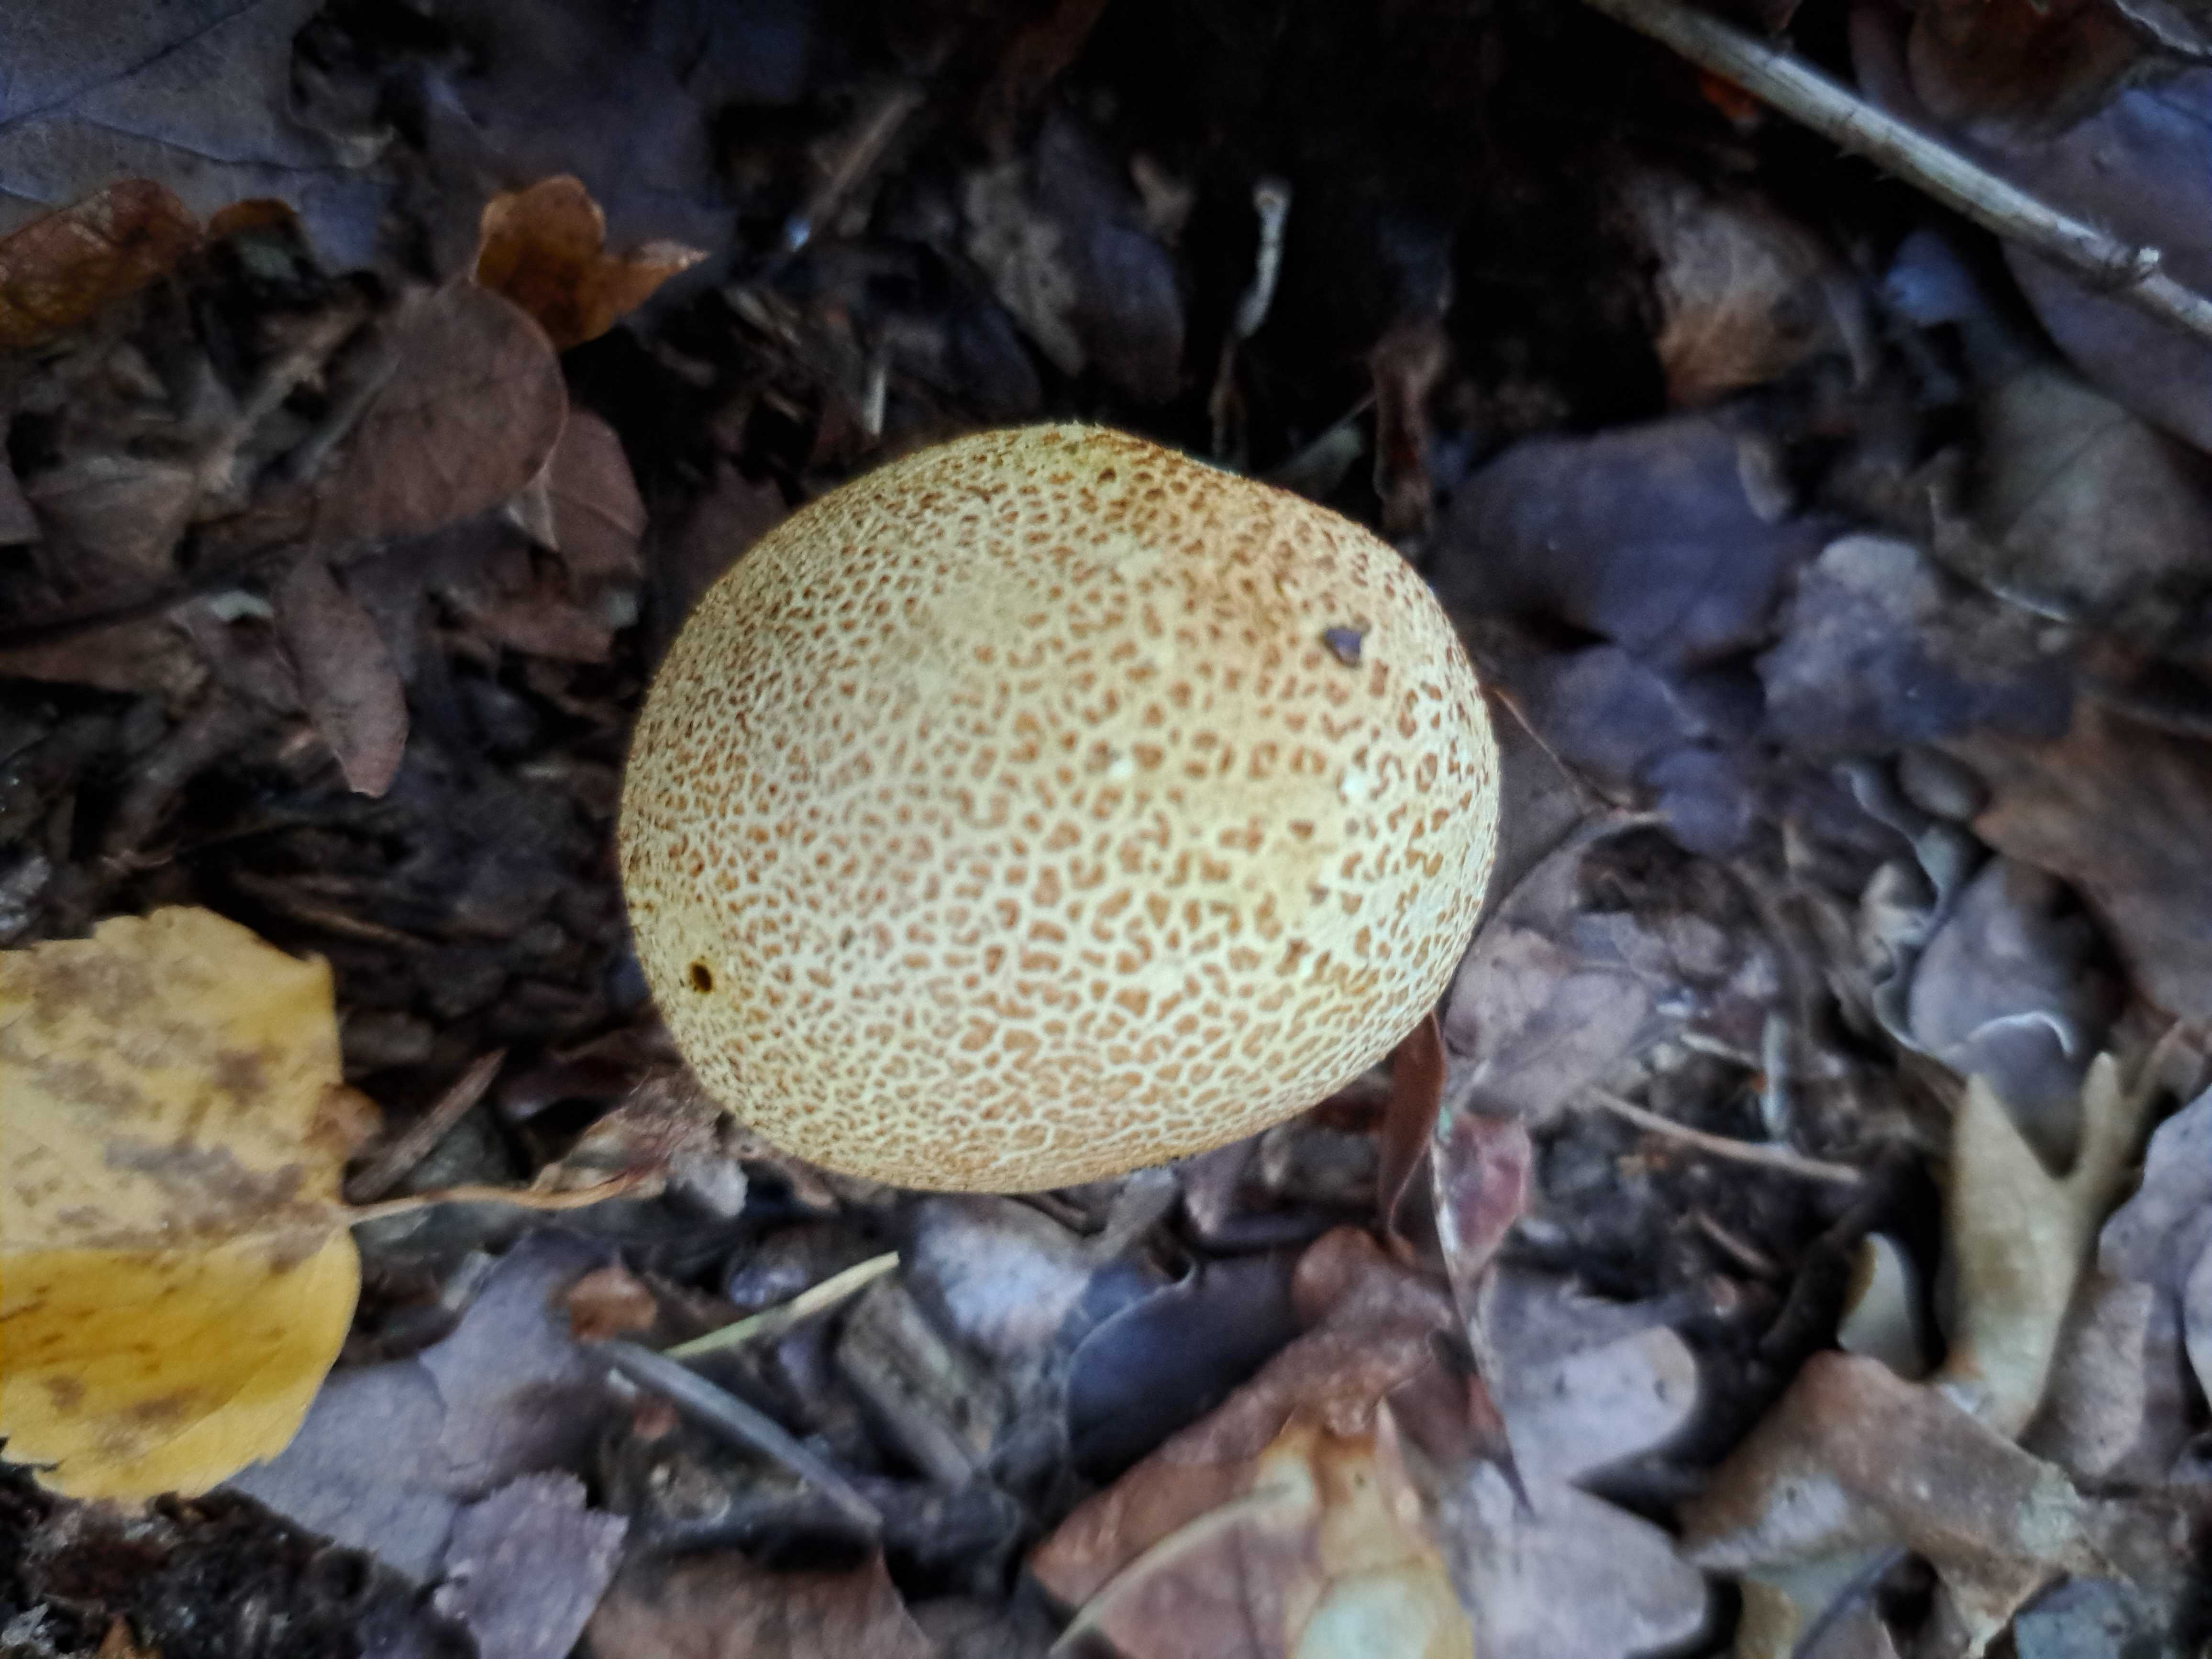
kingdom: Fungi
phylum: Basidiomycota
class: Agaricomycetes
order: Boletales
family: Sclerodermataceae
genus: Scleroderma
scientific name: Scleroderma citrinum
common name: almindelig bruskbold
